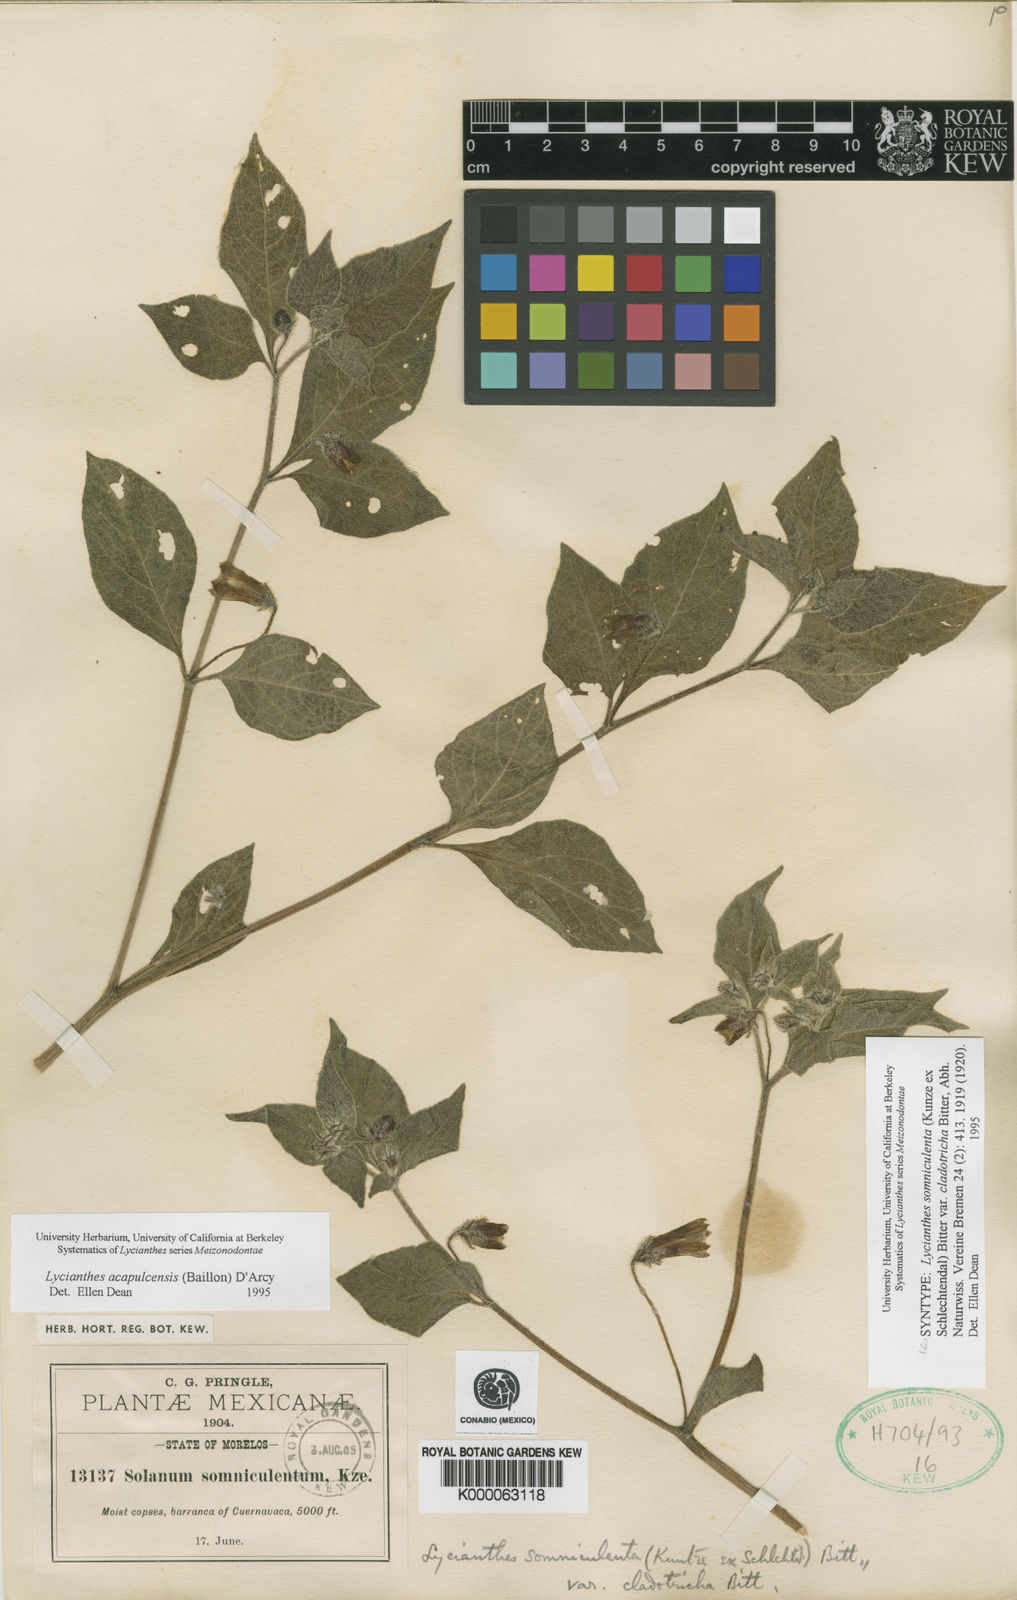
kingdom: Plantae
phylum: Tracheophyta
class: Magnoliopsida
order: Solanales
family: Solanaceae
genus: Lycianthes
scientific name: Lycianthes acapulcensis
